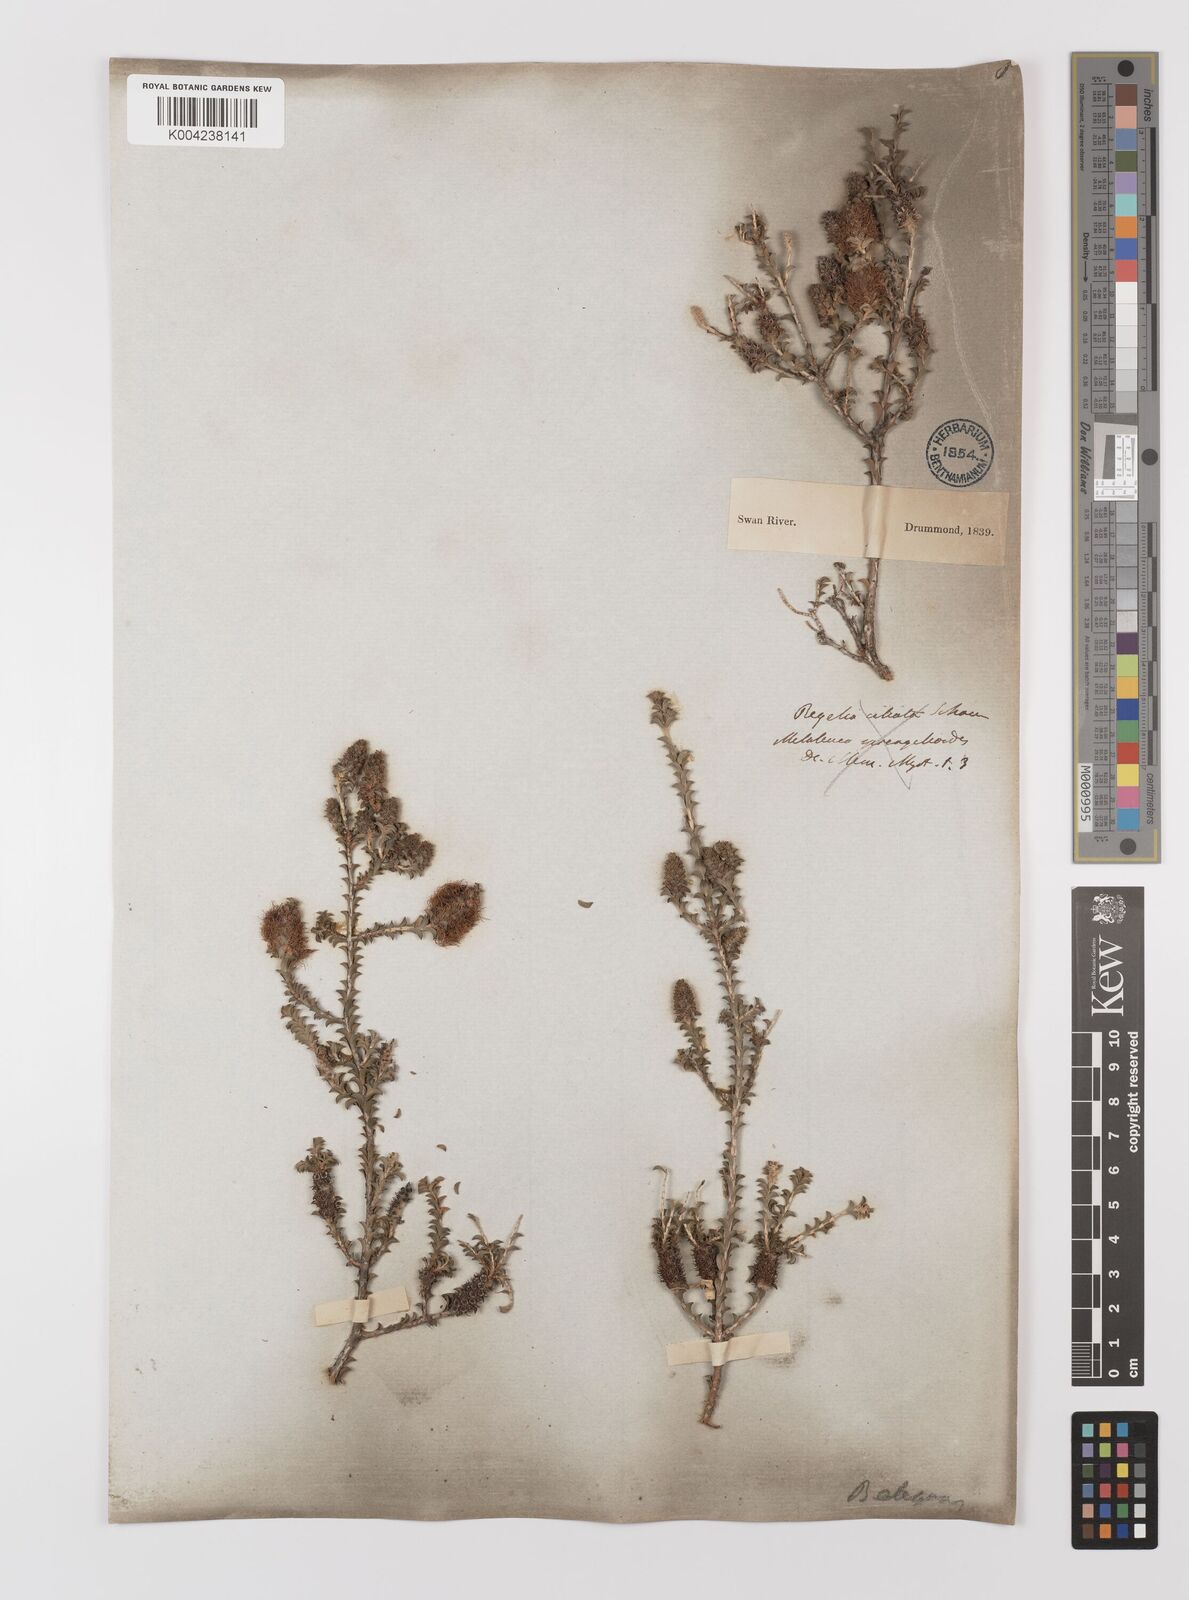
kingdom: Plantae
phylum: Tracheophyta
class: Magnoliopsida
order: Myrtales
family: Myrtaceae
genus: Melaleuca
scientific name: Melaleuca scitula
